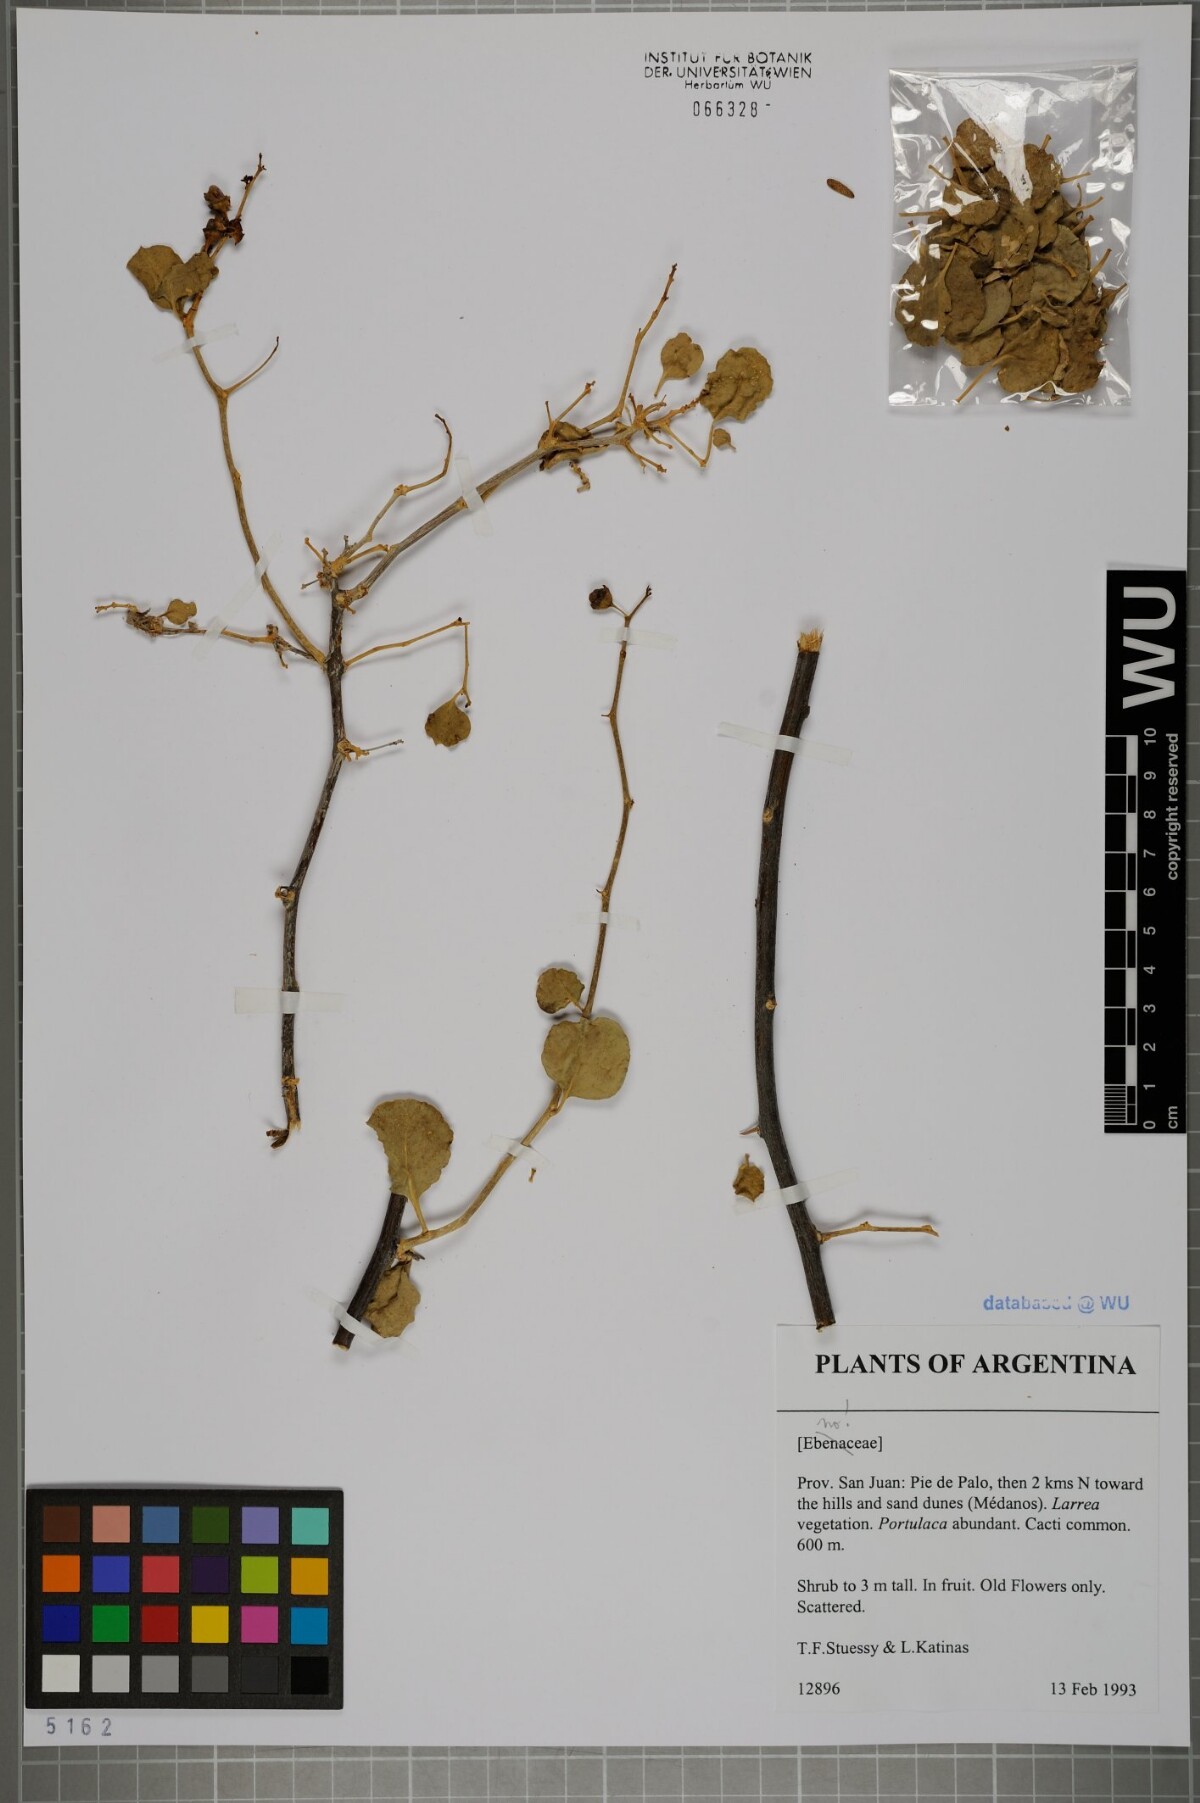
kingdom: Plantae
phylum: Tracheophyta
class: Magnoliopsida
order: Ericales
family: Ebenaceae
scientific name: Ebenaceae
